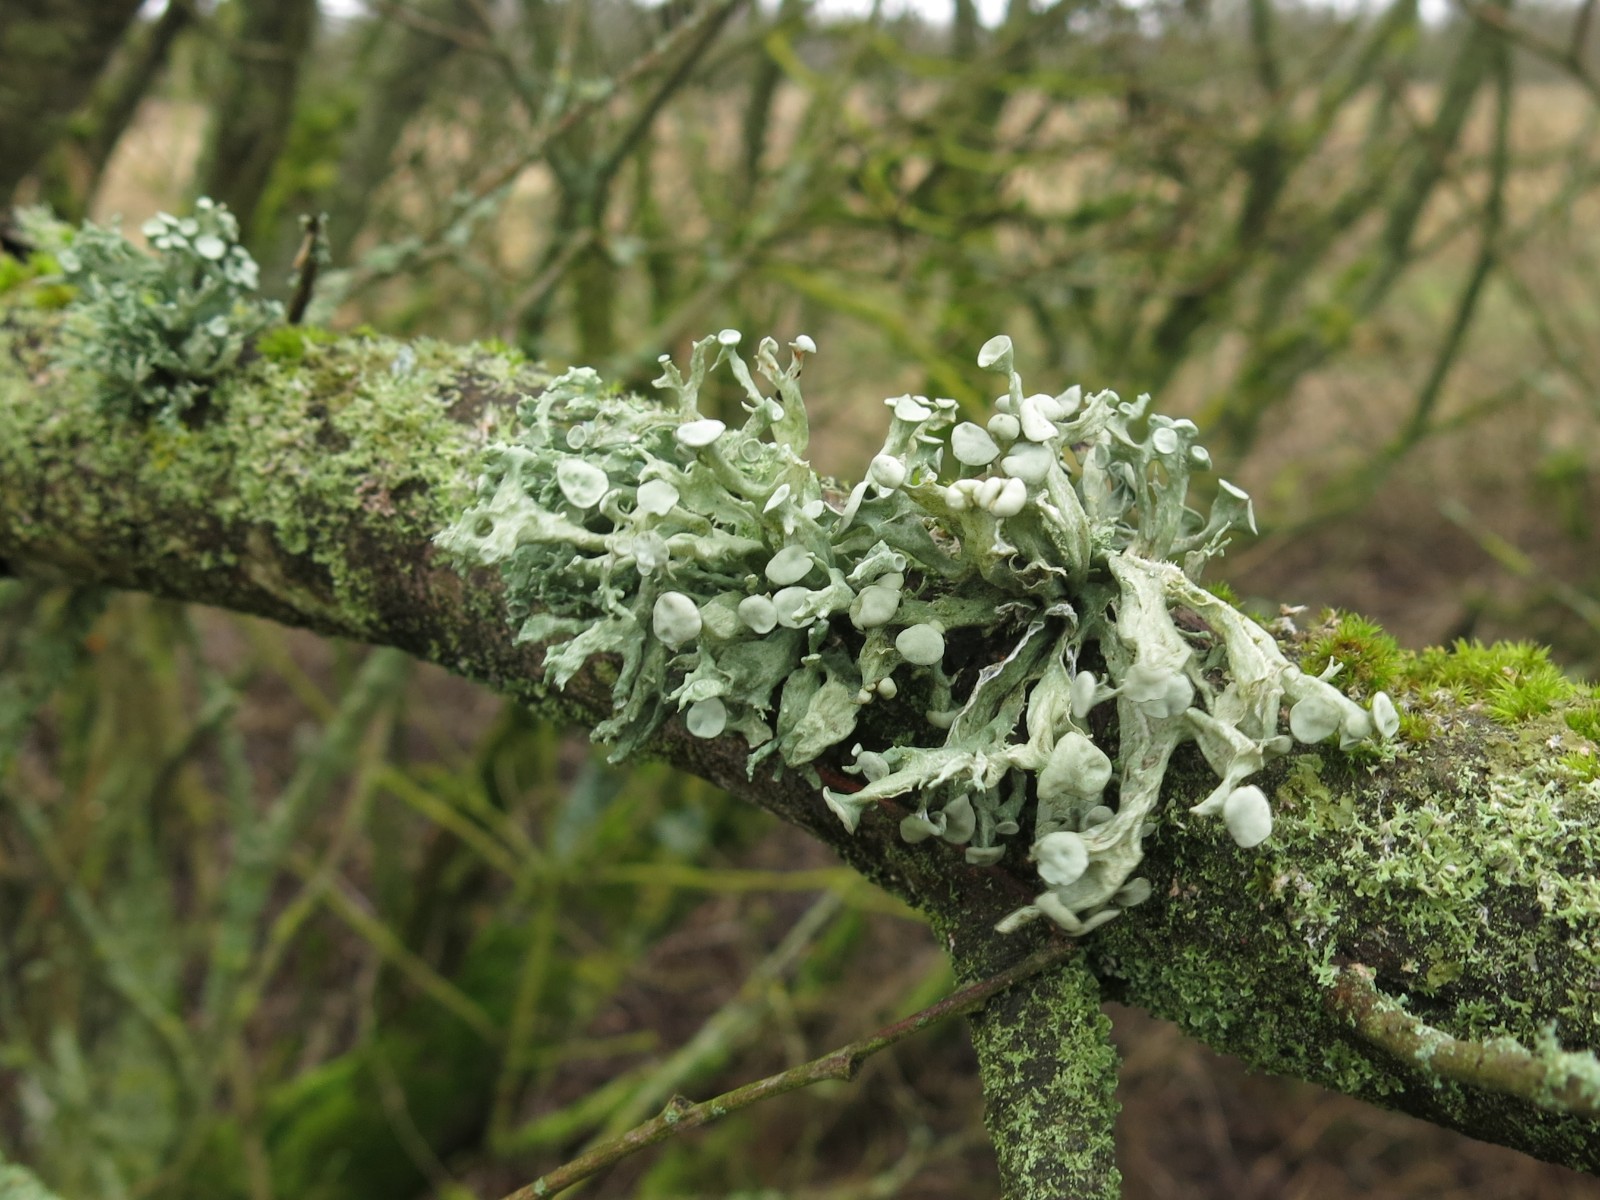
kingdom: Fungi
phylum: Ascomycota
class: Lecanoromycetes
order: Lecanorales
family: Ramalinaceae
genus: Ramalina
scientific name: Ramalina fastigiata
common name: tue-grenlav
